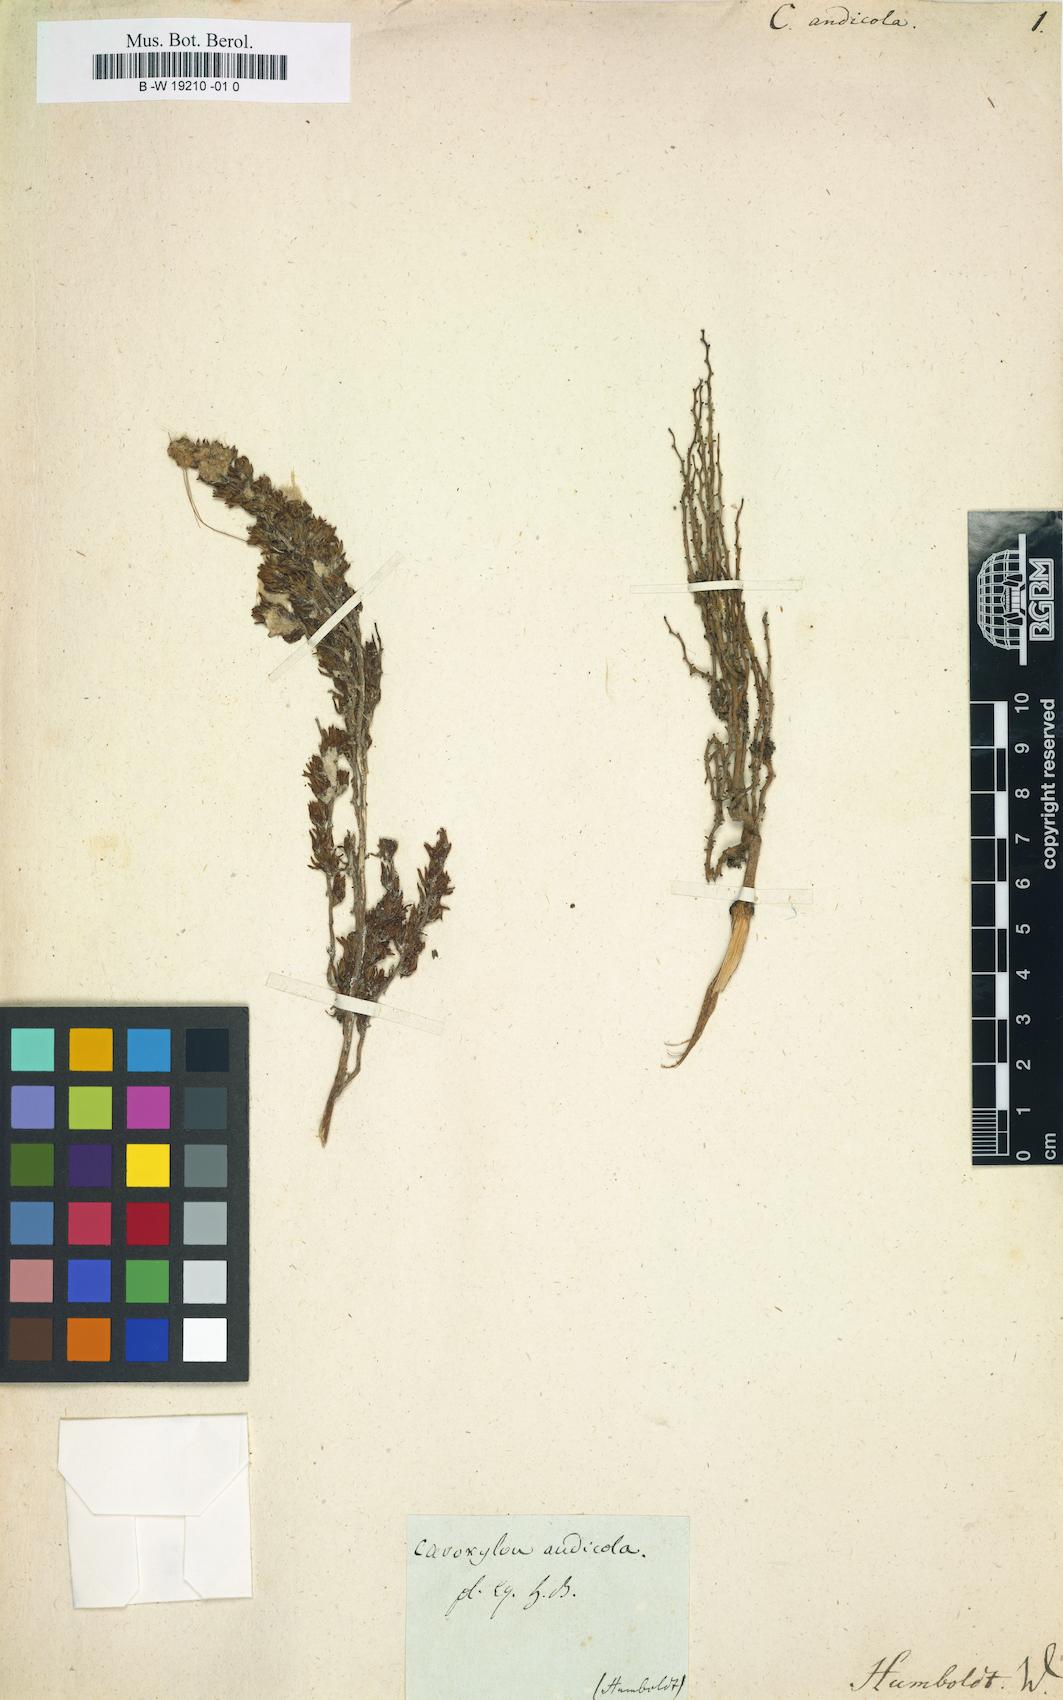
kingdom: Plantae
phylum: Tracheophyta
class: Liliopsida
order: Arecales
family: Arecaceae
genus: Ceroxylon
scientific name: Ceroxylon alpinum
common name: Wax palm
